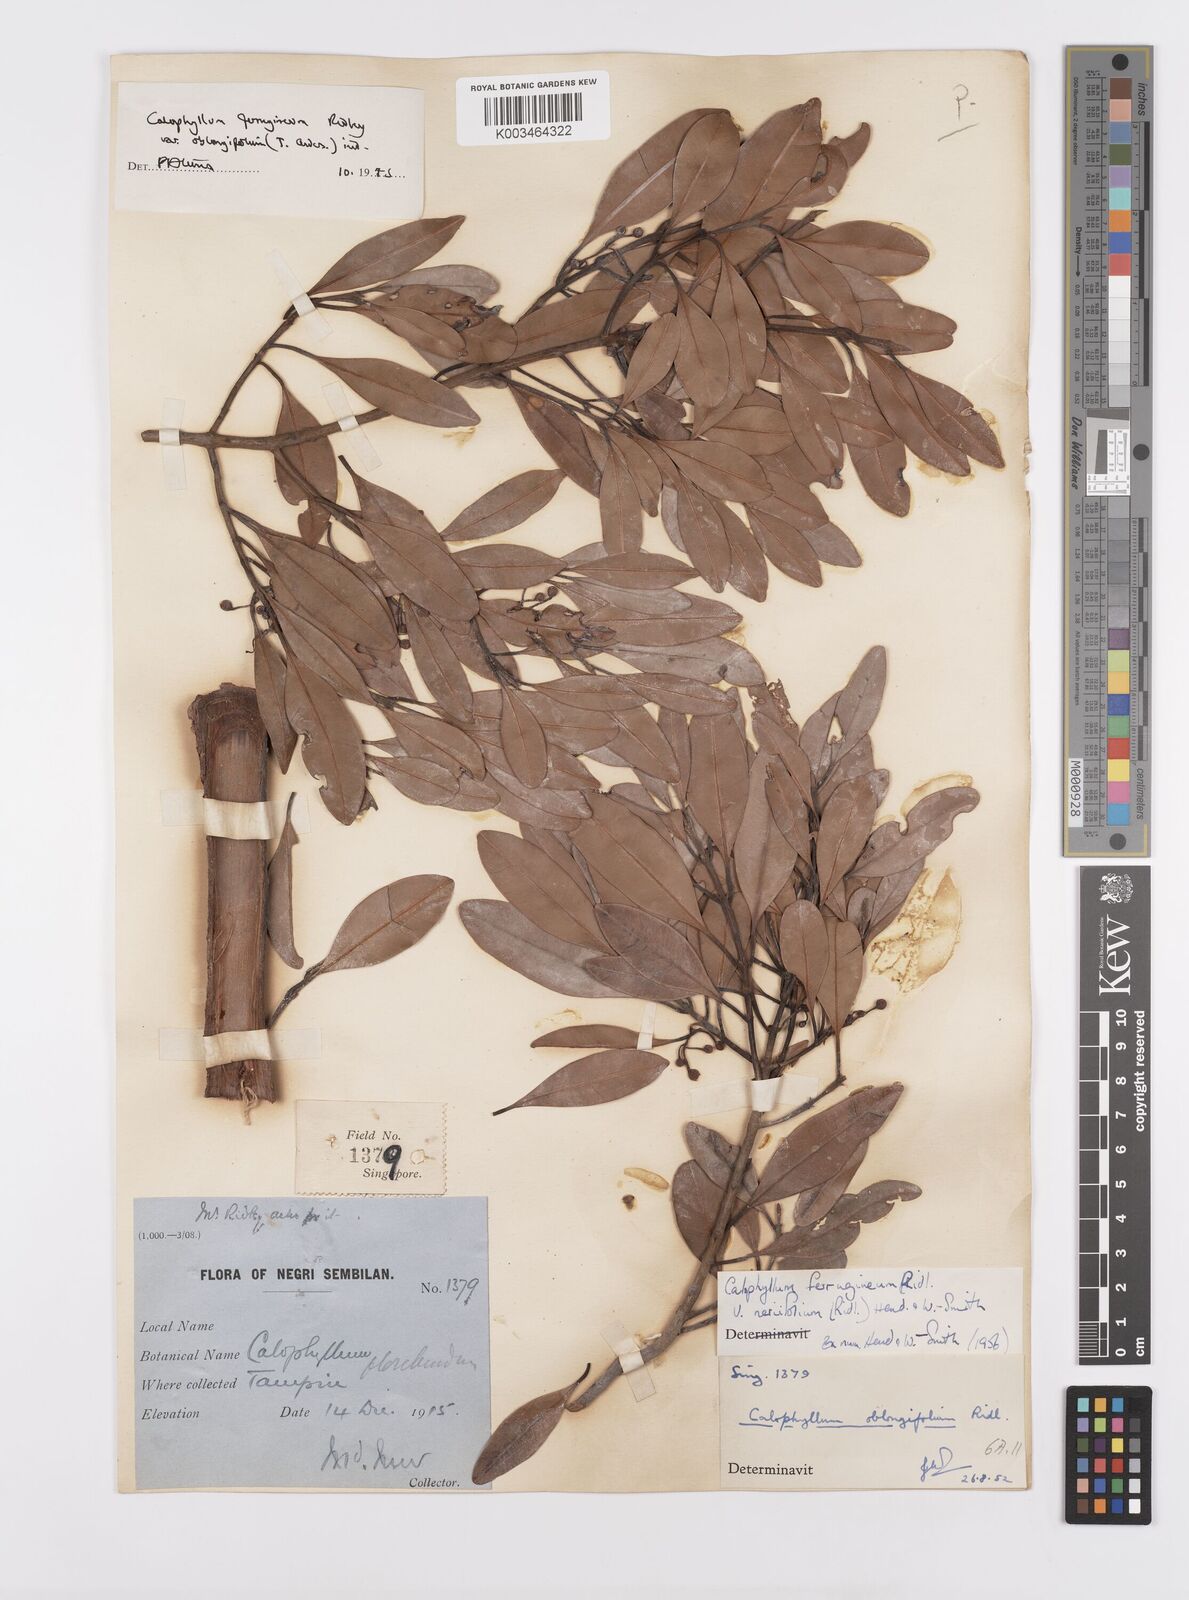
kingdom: Plantae
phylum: Tracheophyta
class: Magnoliopsida
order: Malpighiales
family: Calophyllaceae
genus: Calophyllum
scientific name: Calophyllum ferrugineum
